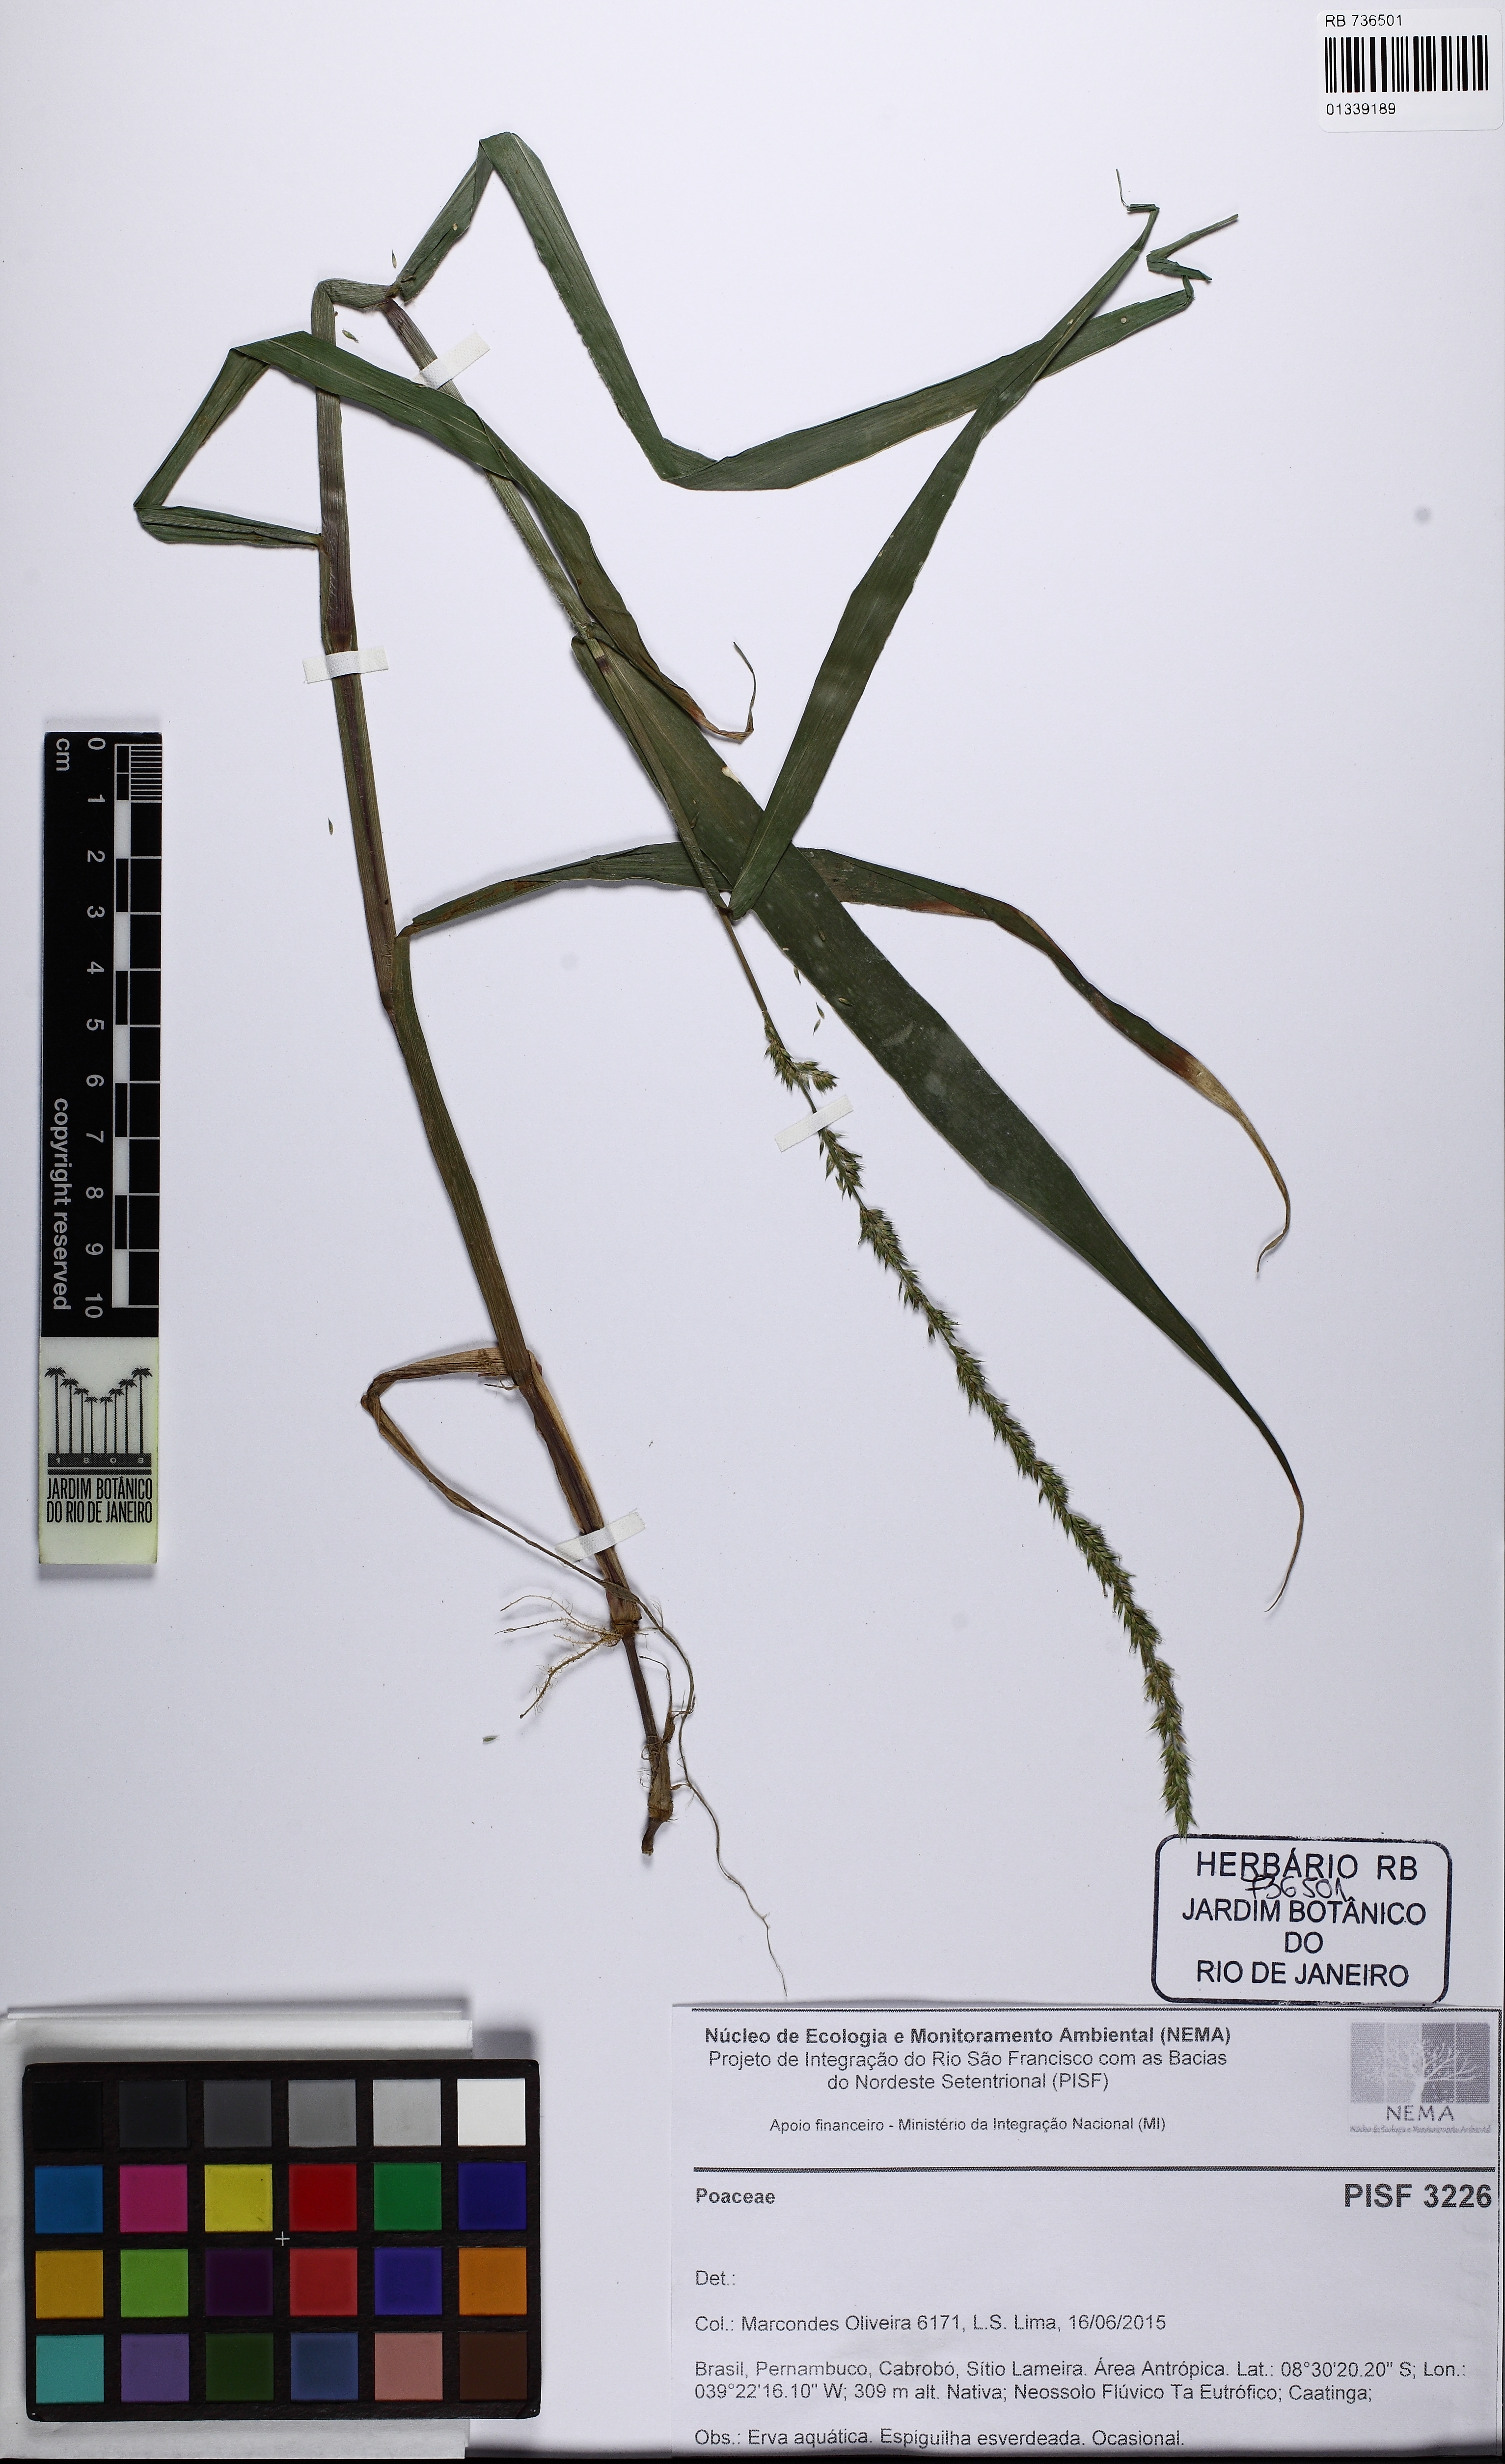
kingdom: Plantae
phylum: Tracheophyta
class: Liliopsida
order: Poales
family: Poaceae
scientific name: Poaceae
